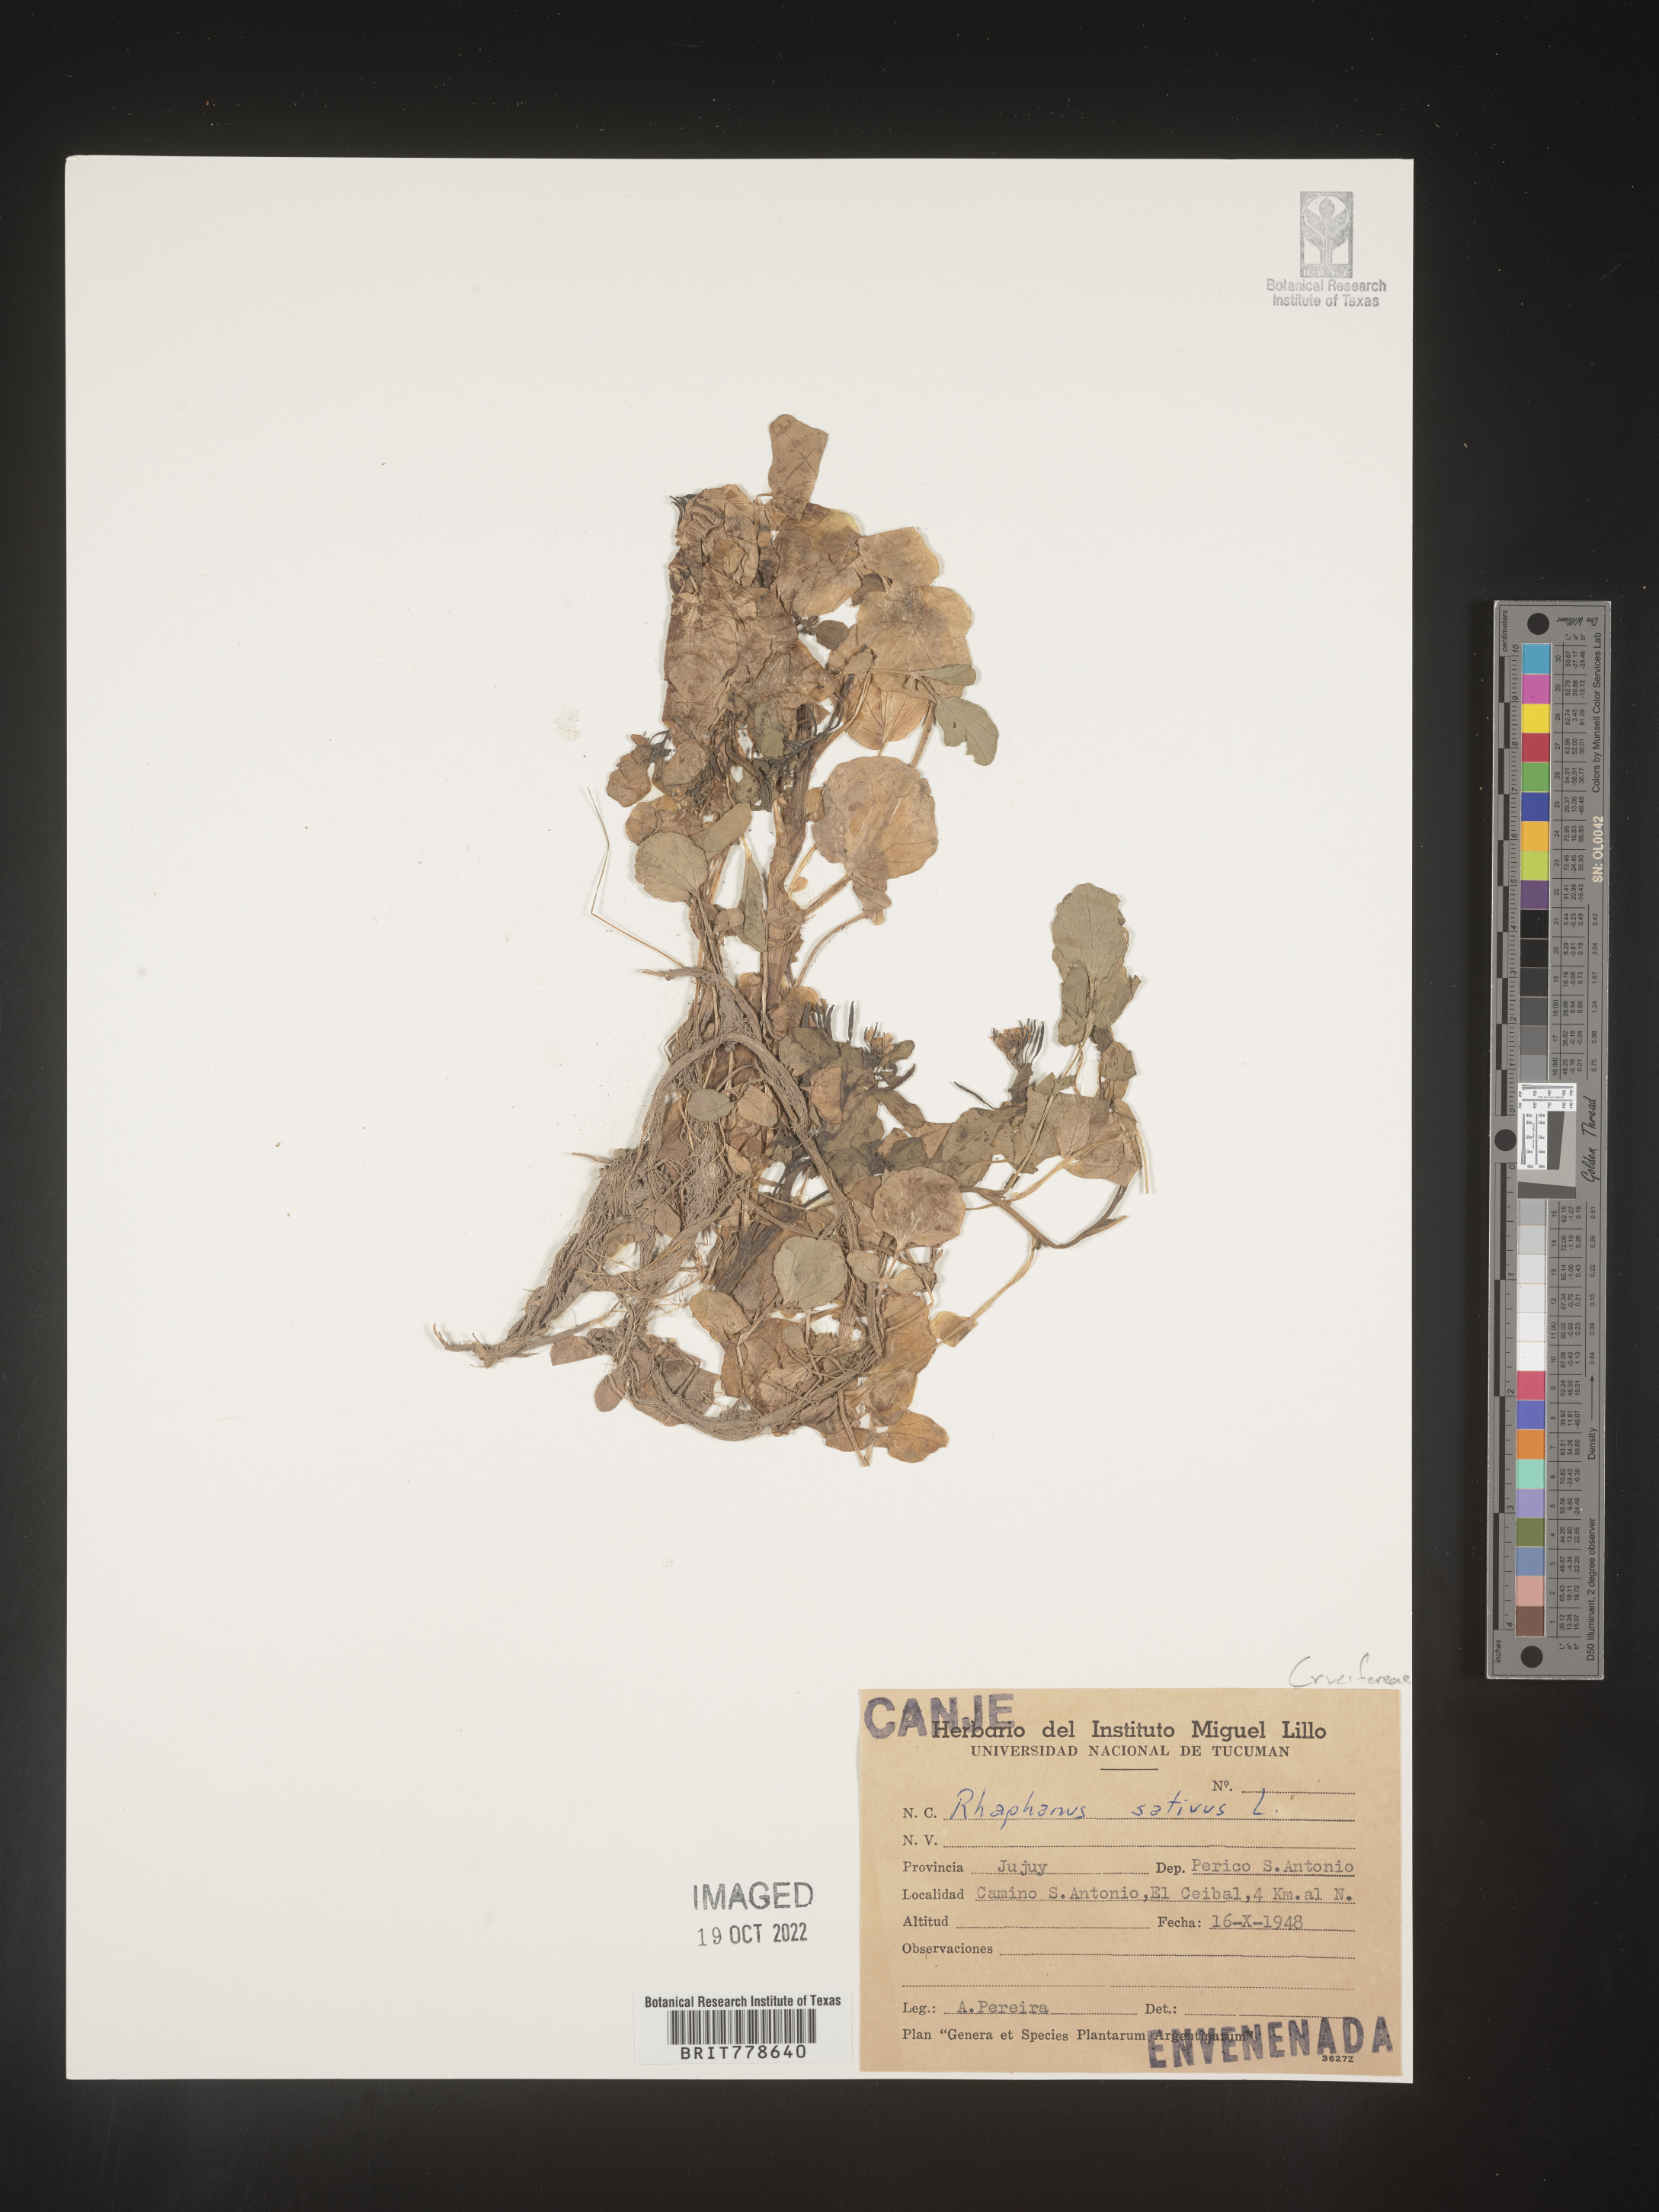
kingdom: Plantae
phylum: Tracheophyta
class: Magnoliopsida
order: Brassicales
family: Brassicaceae
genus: Raphanus
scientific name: Raphanus
